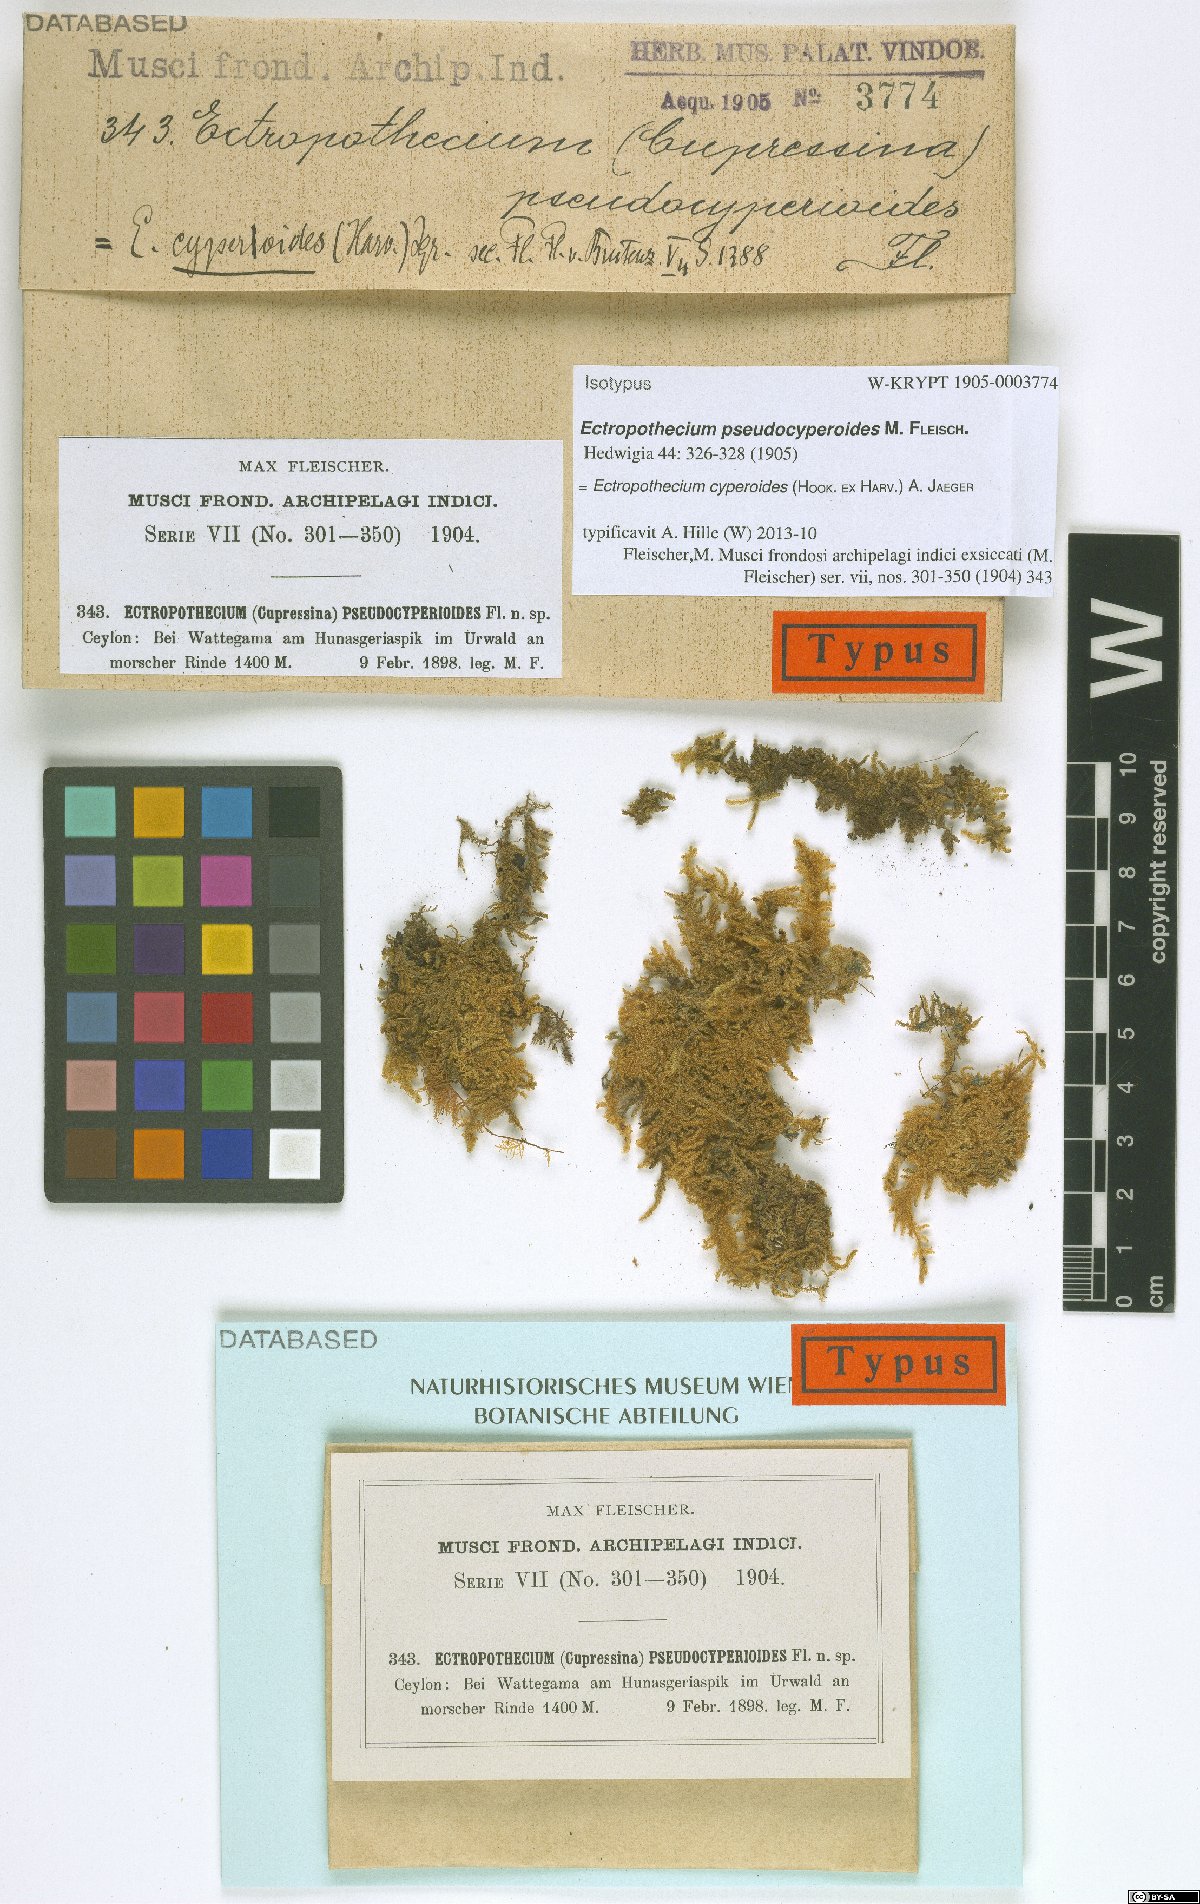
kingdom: Plantae
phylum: Bryophyta
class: Bryopsida
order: Hypnales
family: Hypnaceae
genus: Ectropothecium
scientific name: Ectropothecium pseudocyperoides
